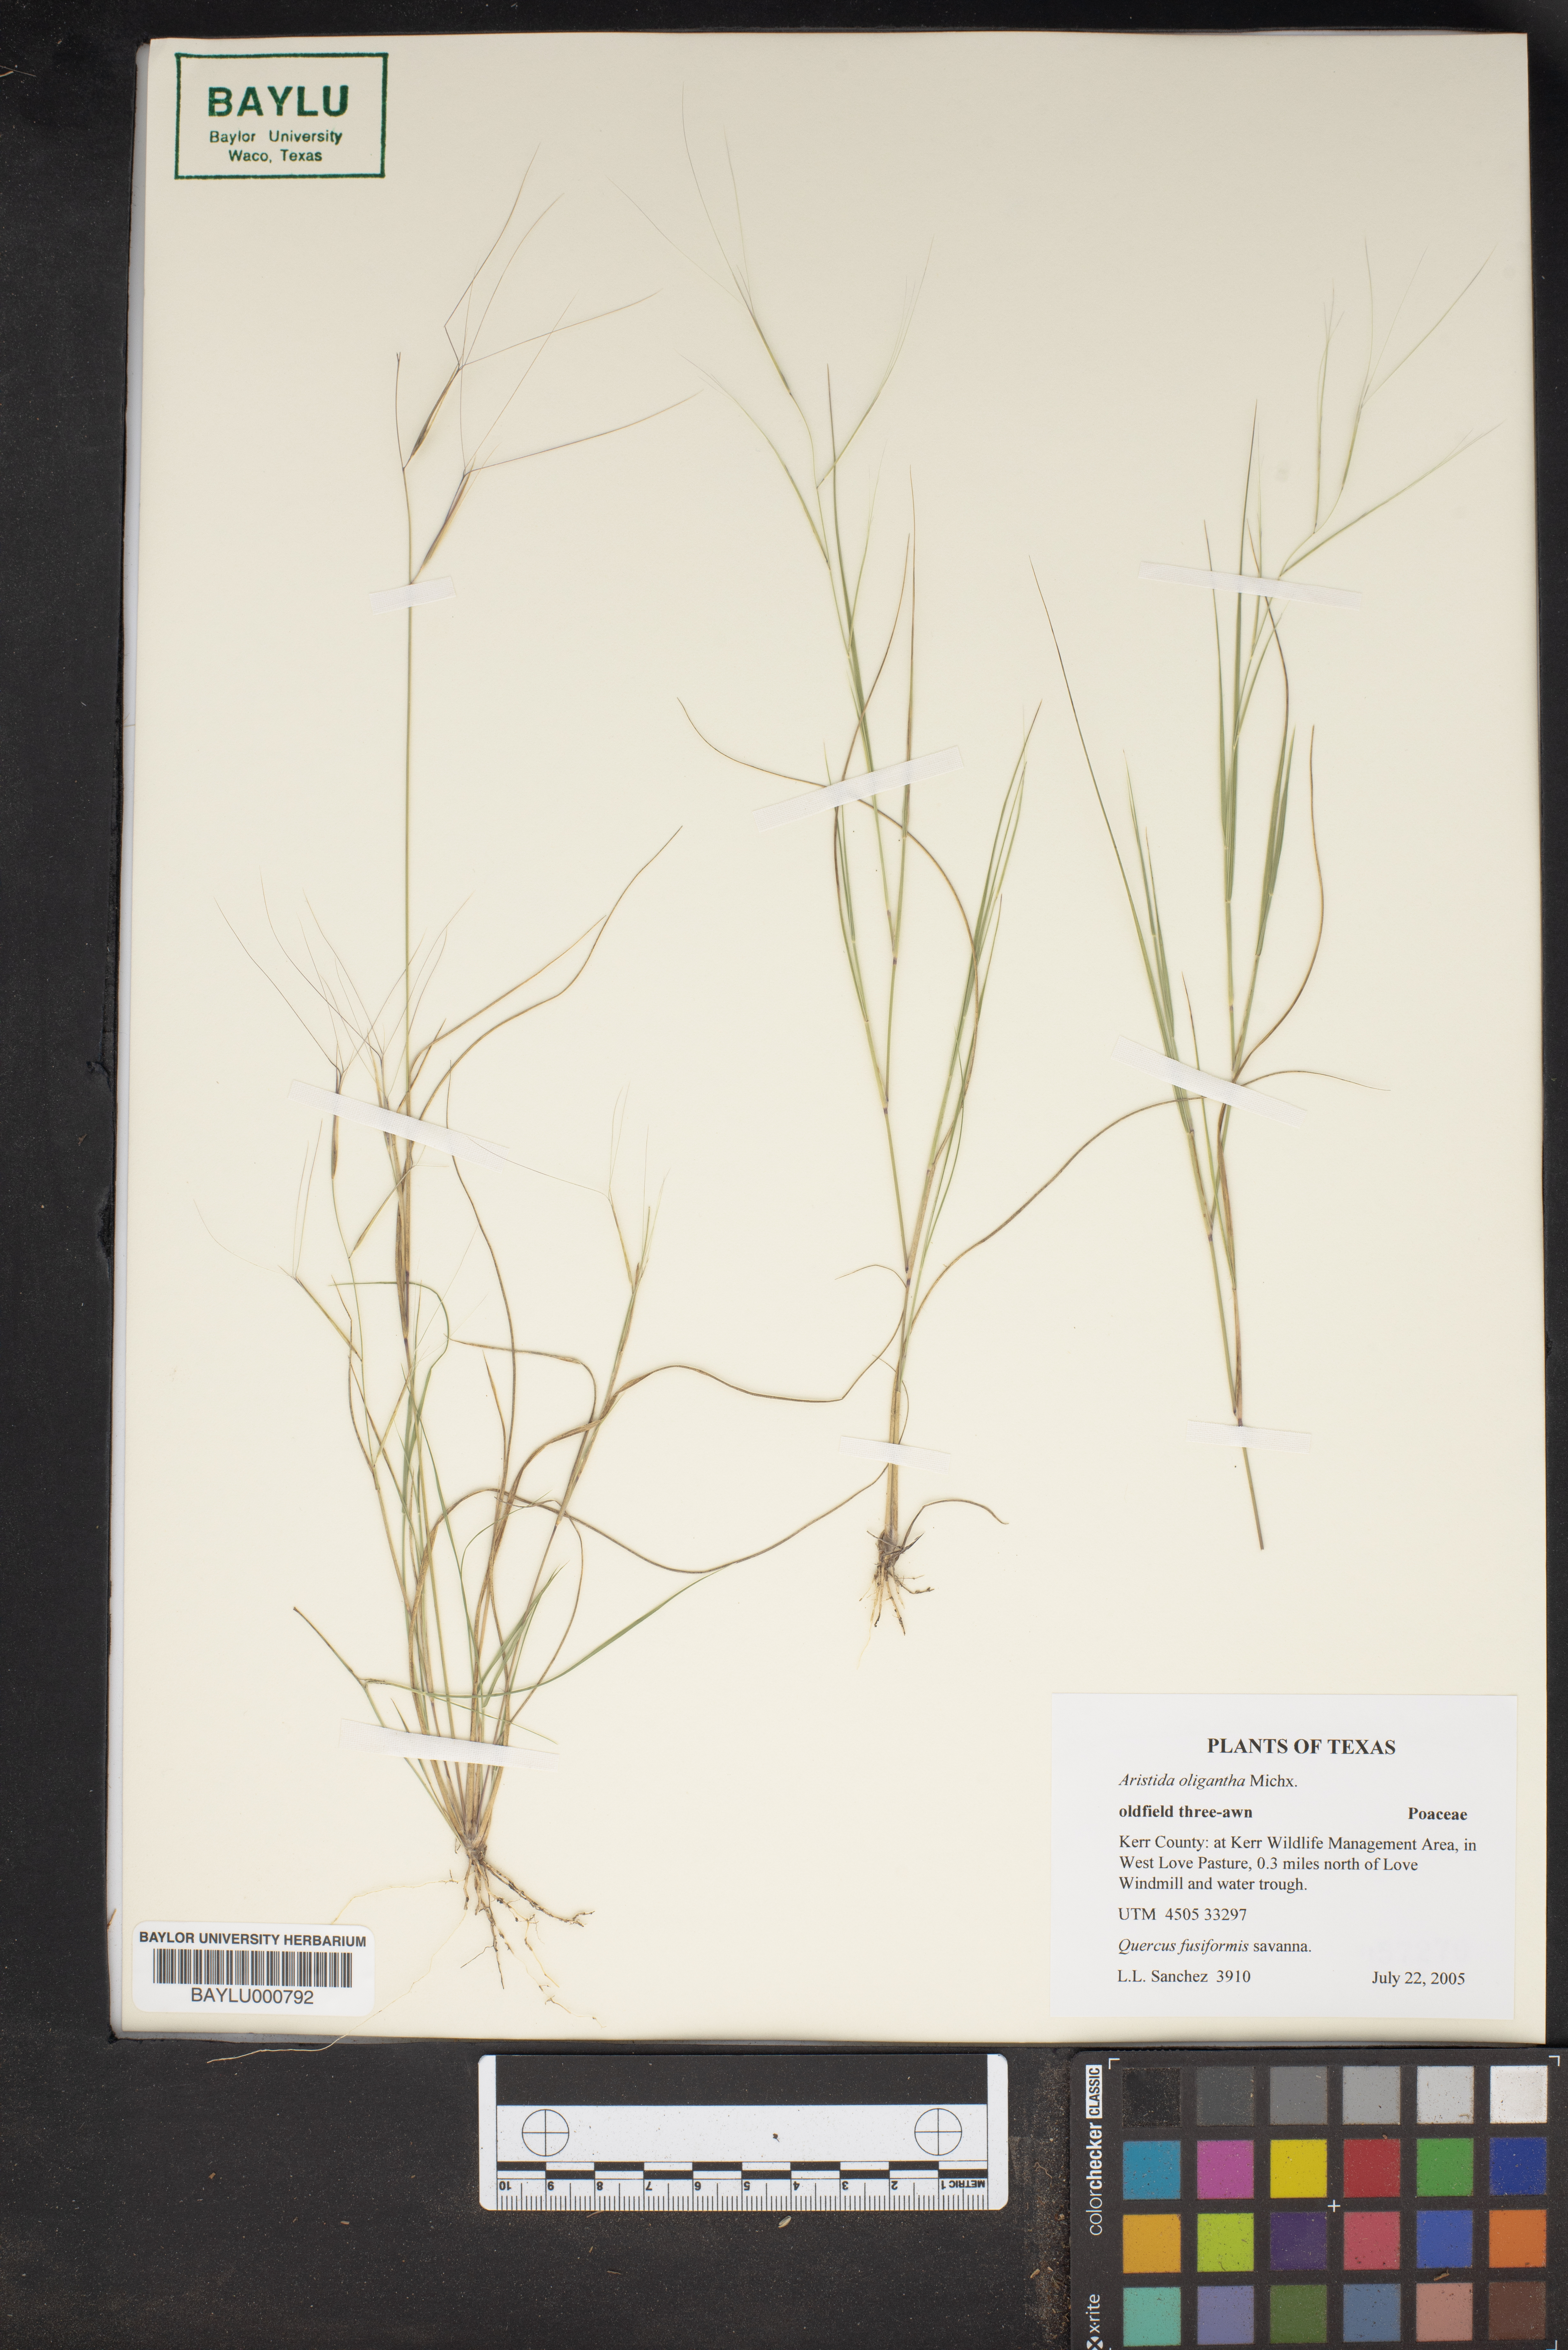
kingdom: Plantae
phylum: Tracheophyta
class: Liliopsida
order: Poales
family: Poaceae
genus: Aristida
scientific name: Aristida oligantha
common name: Few-flowered aristida
